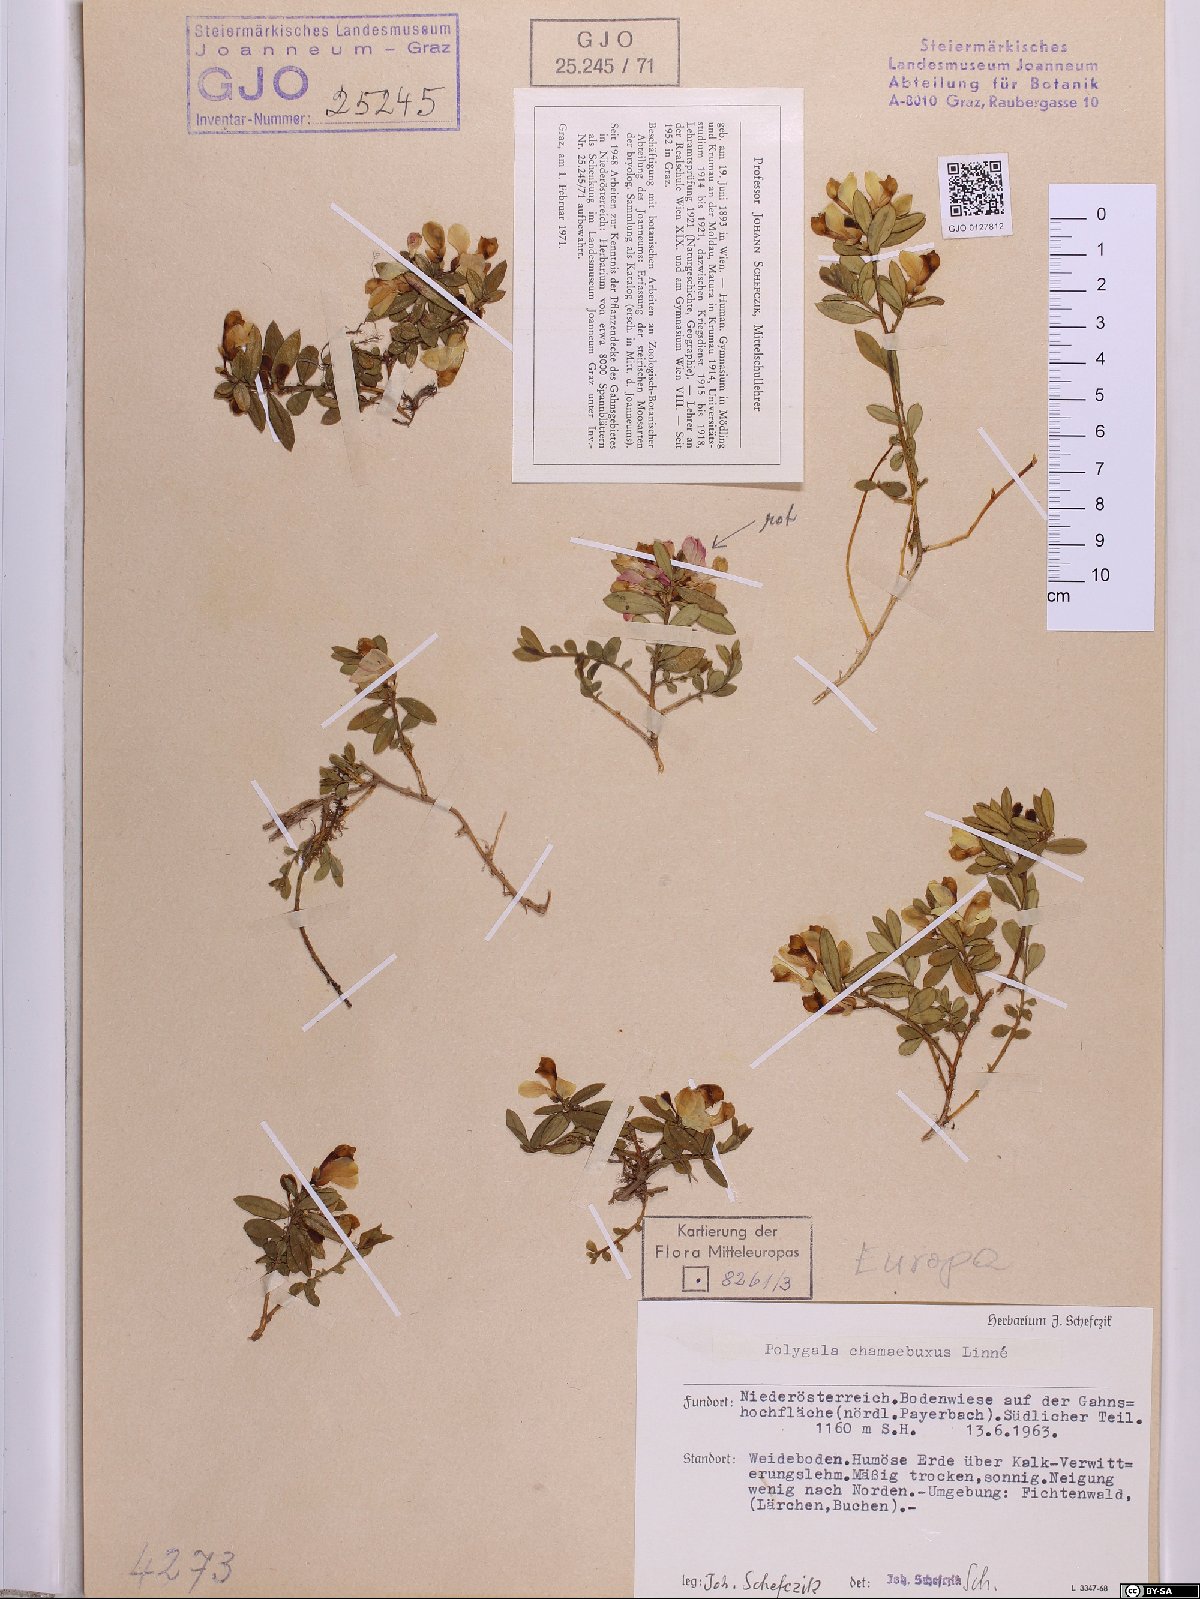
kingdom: Plantae
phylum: Tracheophyta
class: Magnoliopsida
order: Fabales
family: Polygalaceae
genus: Polygaloides
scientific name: Polygaloides chamaebuxus
